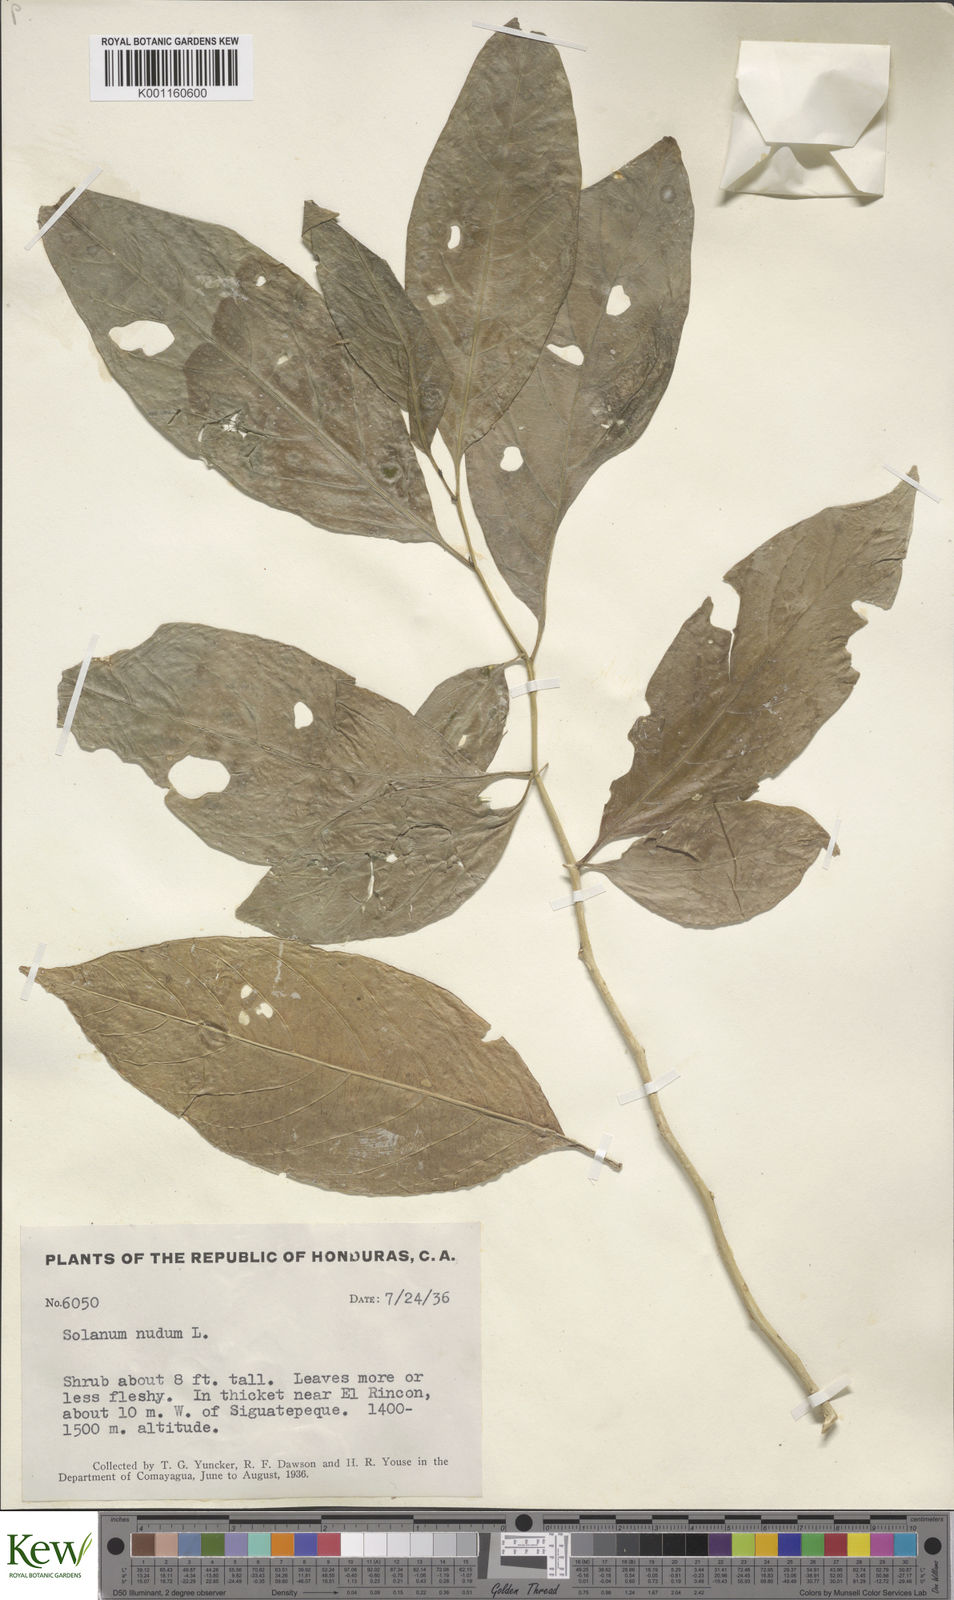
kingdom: Plantae
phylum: Tracheophyta
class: Magnoliopsida
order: Solanales
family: Solanaceae
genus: Solanum
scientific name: Solanum nudum
